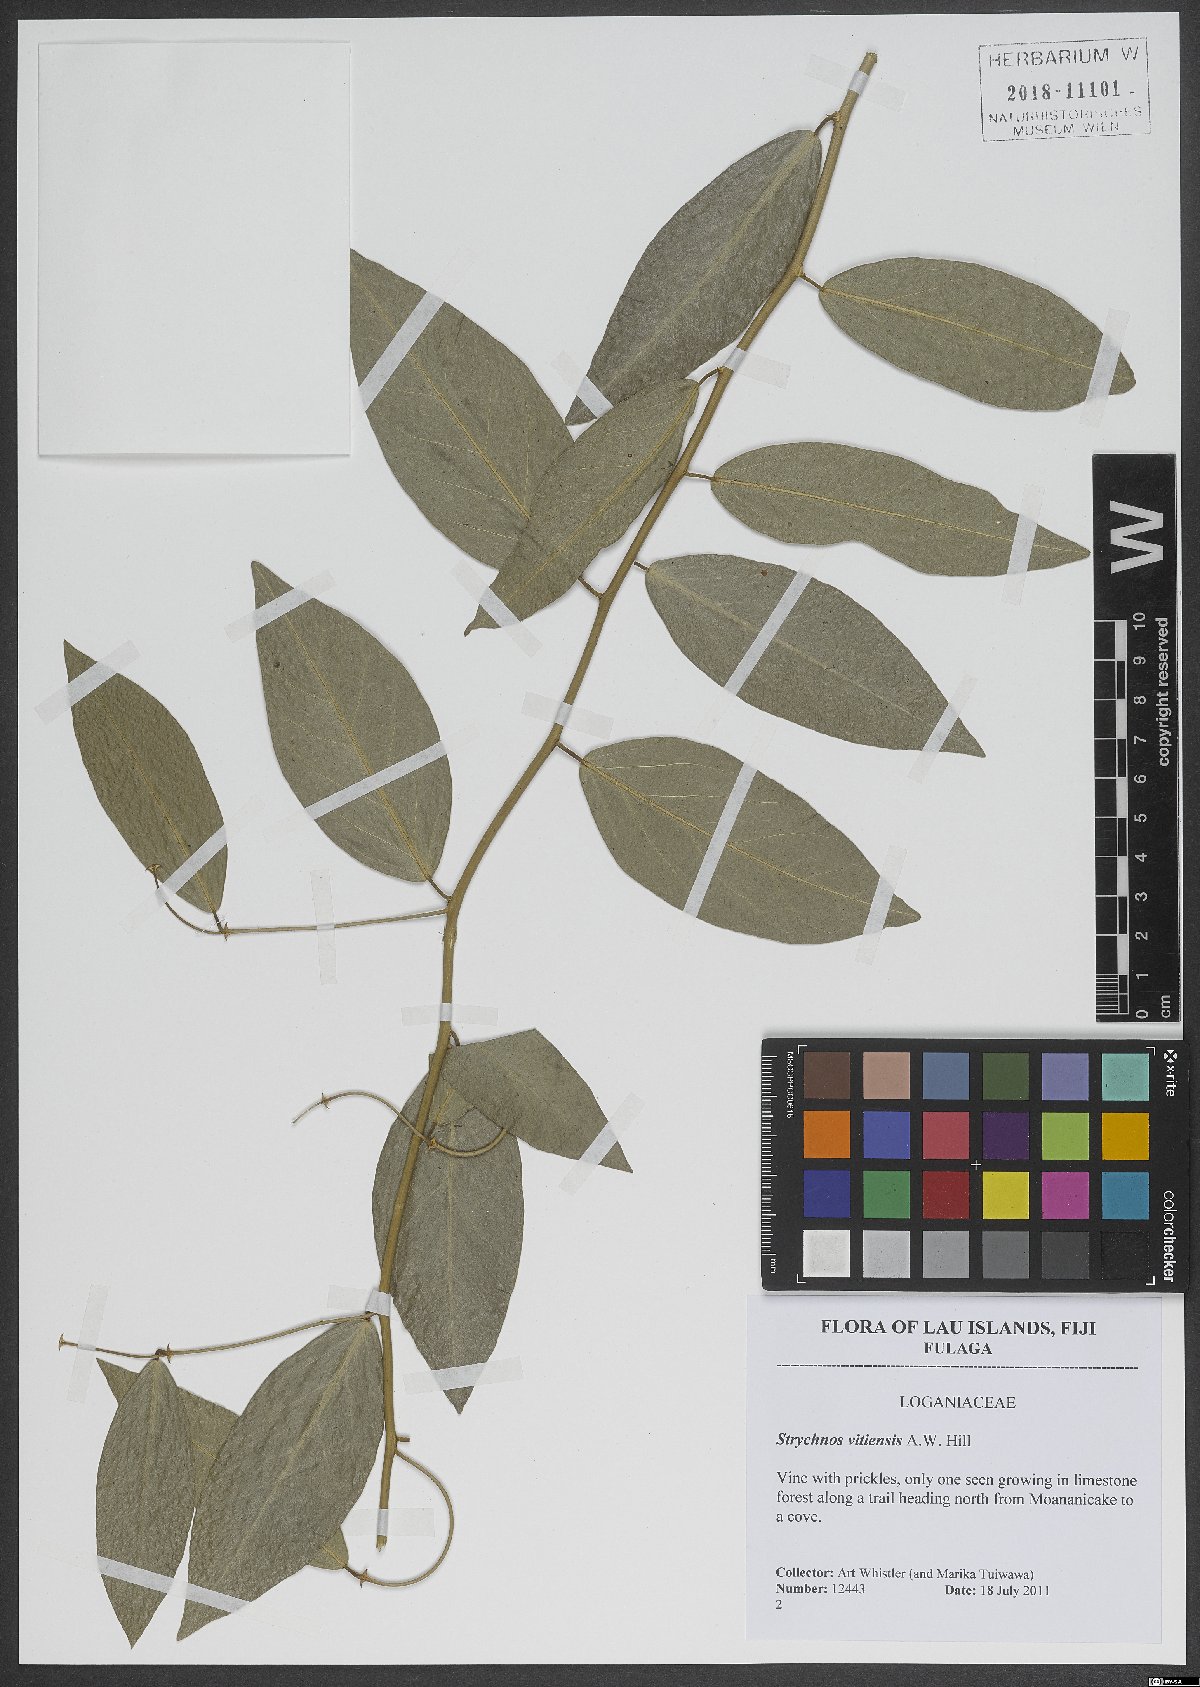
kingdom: Plantae
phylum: Tracheophyta
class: Magnoliopsida
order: Gentianales
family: Loganiaceae
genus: Strychnos
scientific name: Strychnos vitiensis
